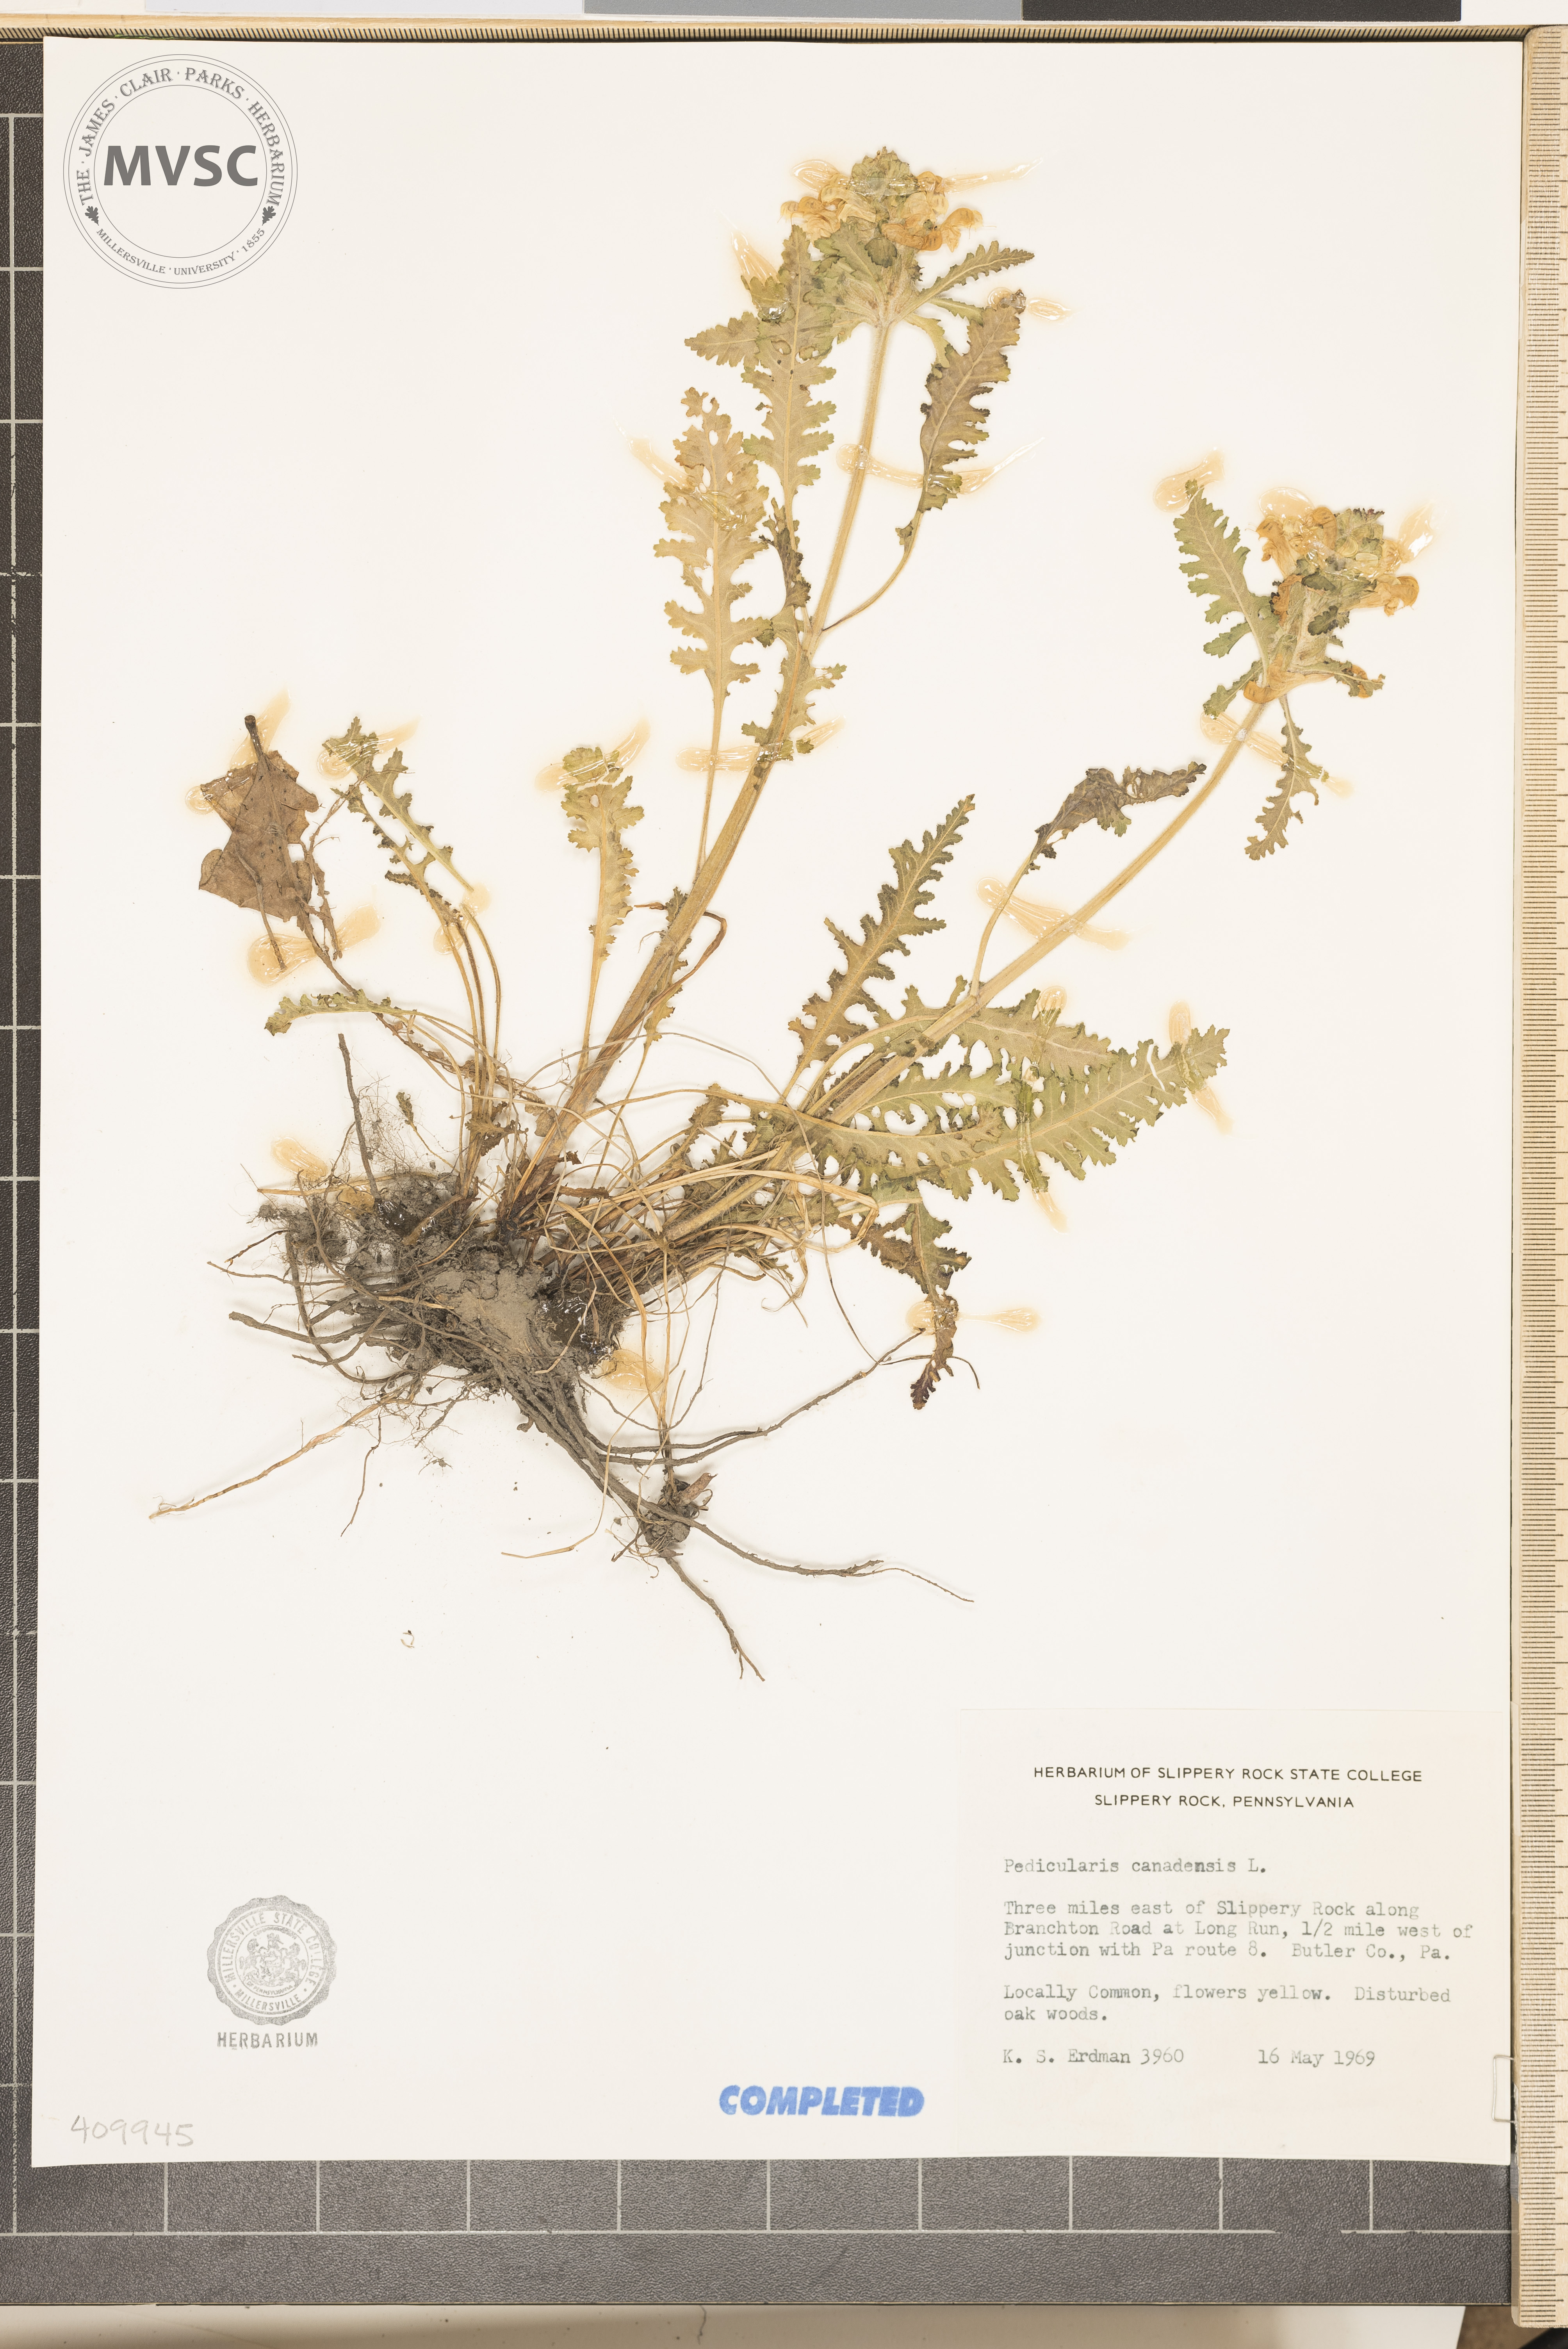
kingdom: Plantae
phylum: Tracheophyta
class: Magnoliopsida
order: Lamiales
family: Orobanchaceae
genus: Pedicularis
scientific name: Pedicularis canadensis
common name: Early lousewort
